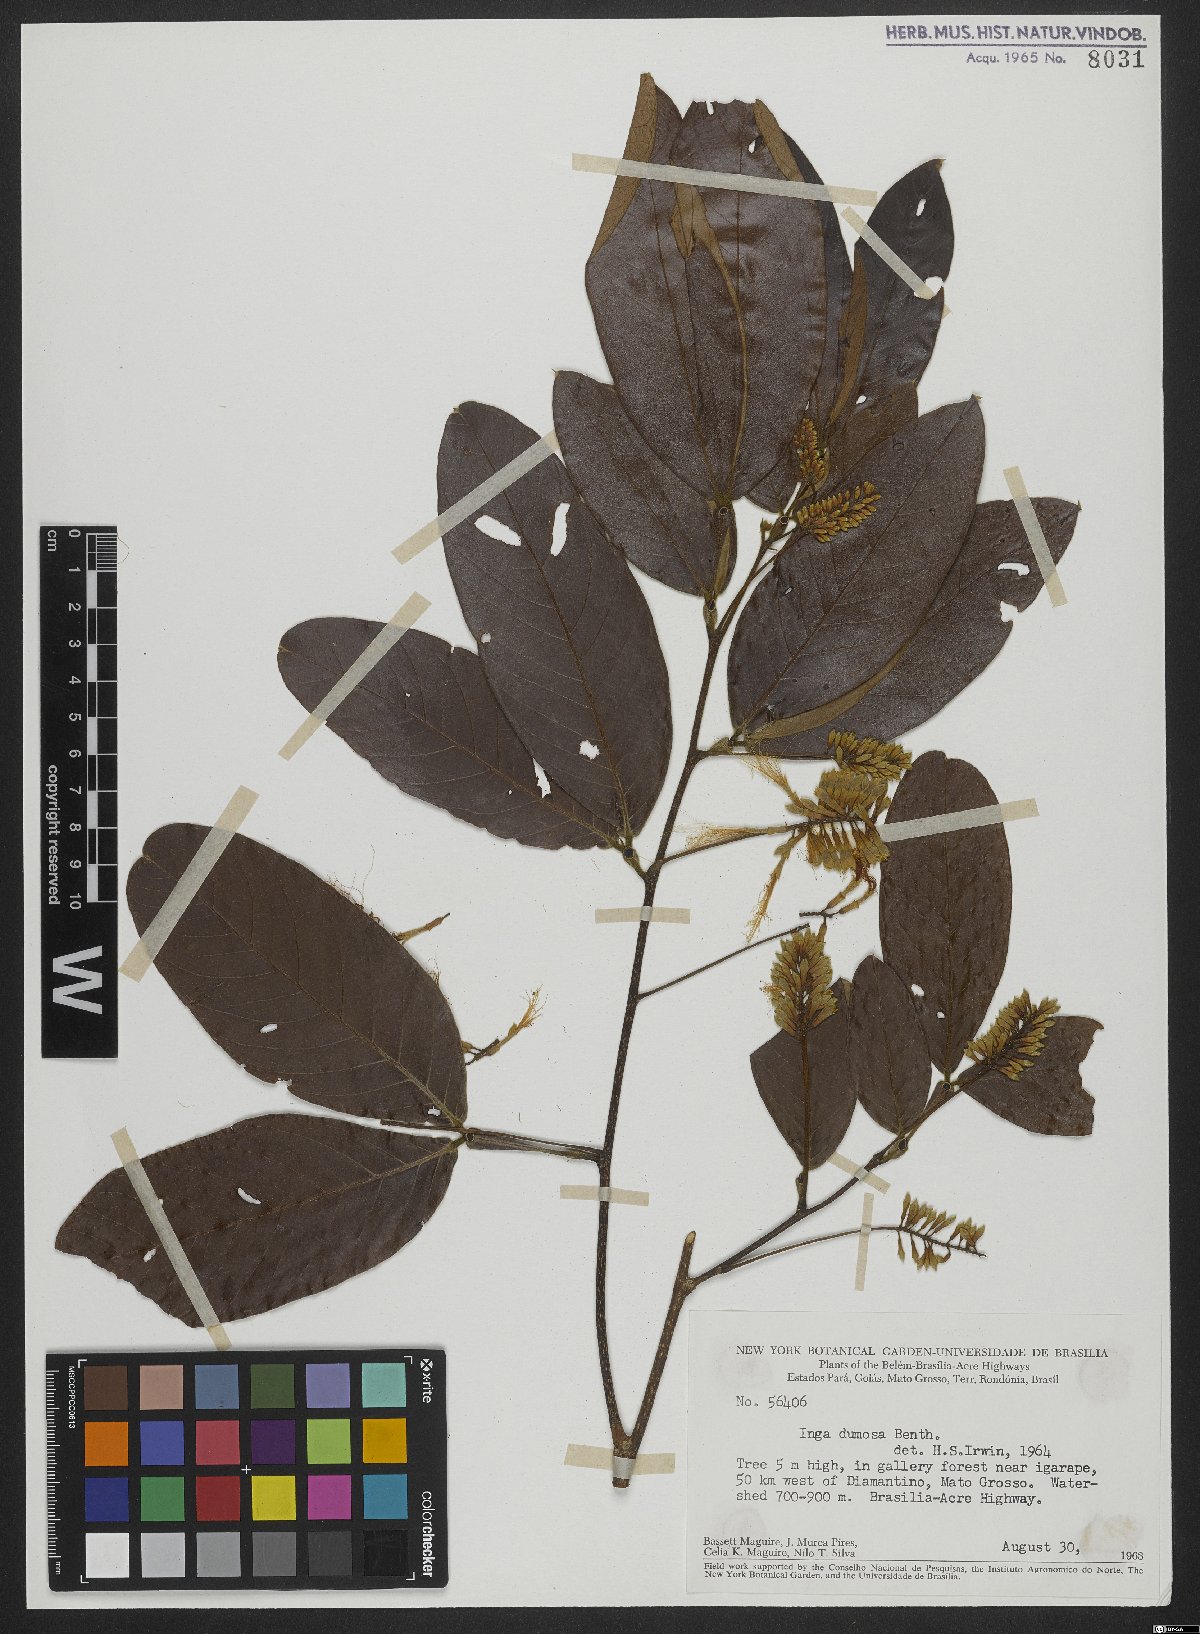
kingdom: Plantae
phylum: Tracheophyta
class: Magnoliopsida
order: Fabales
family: Fabaceae
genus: Inga
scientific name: Inga stenoptera
